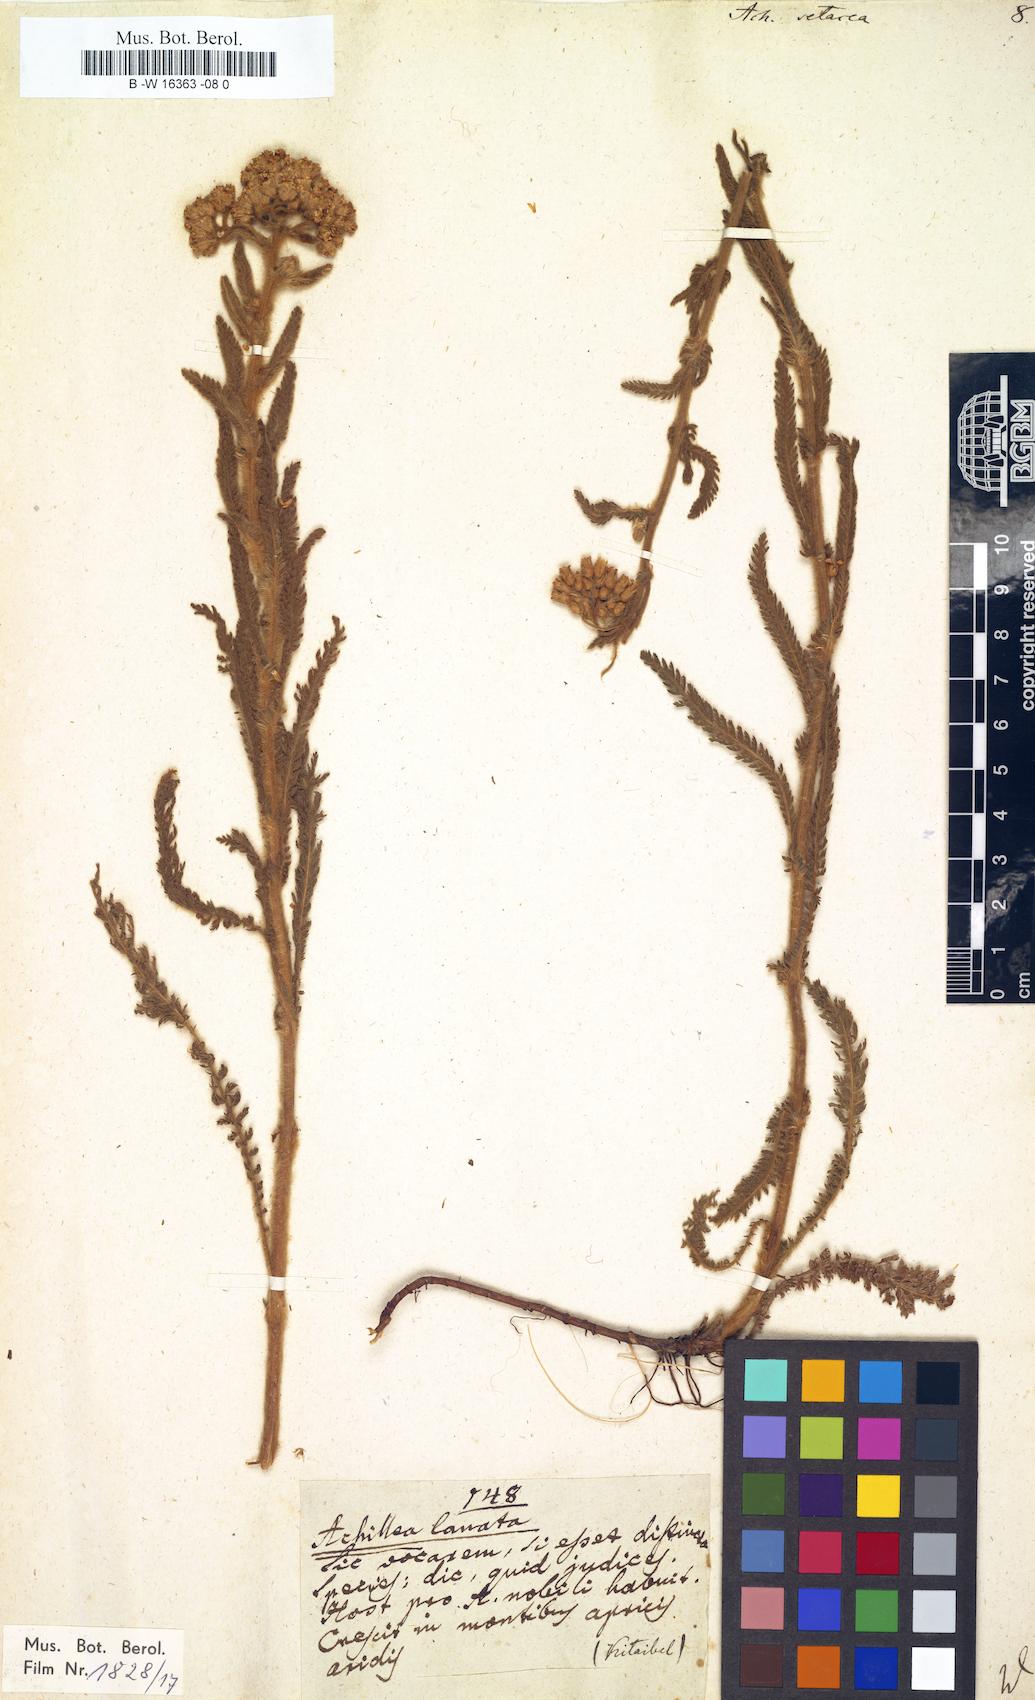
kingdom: Plantae
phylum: Tracheophyta
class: Magnoliopsida
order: Asterales
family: Asteraceae
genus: Achillea
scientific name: Achillea setacea
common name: Bristly yarrow
